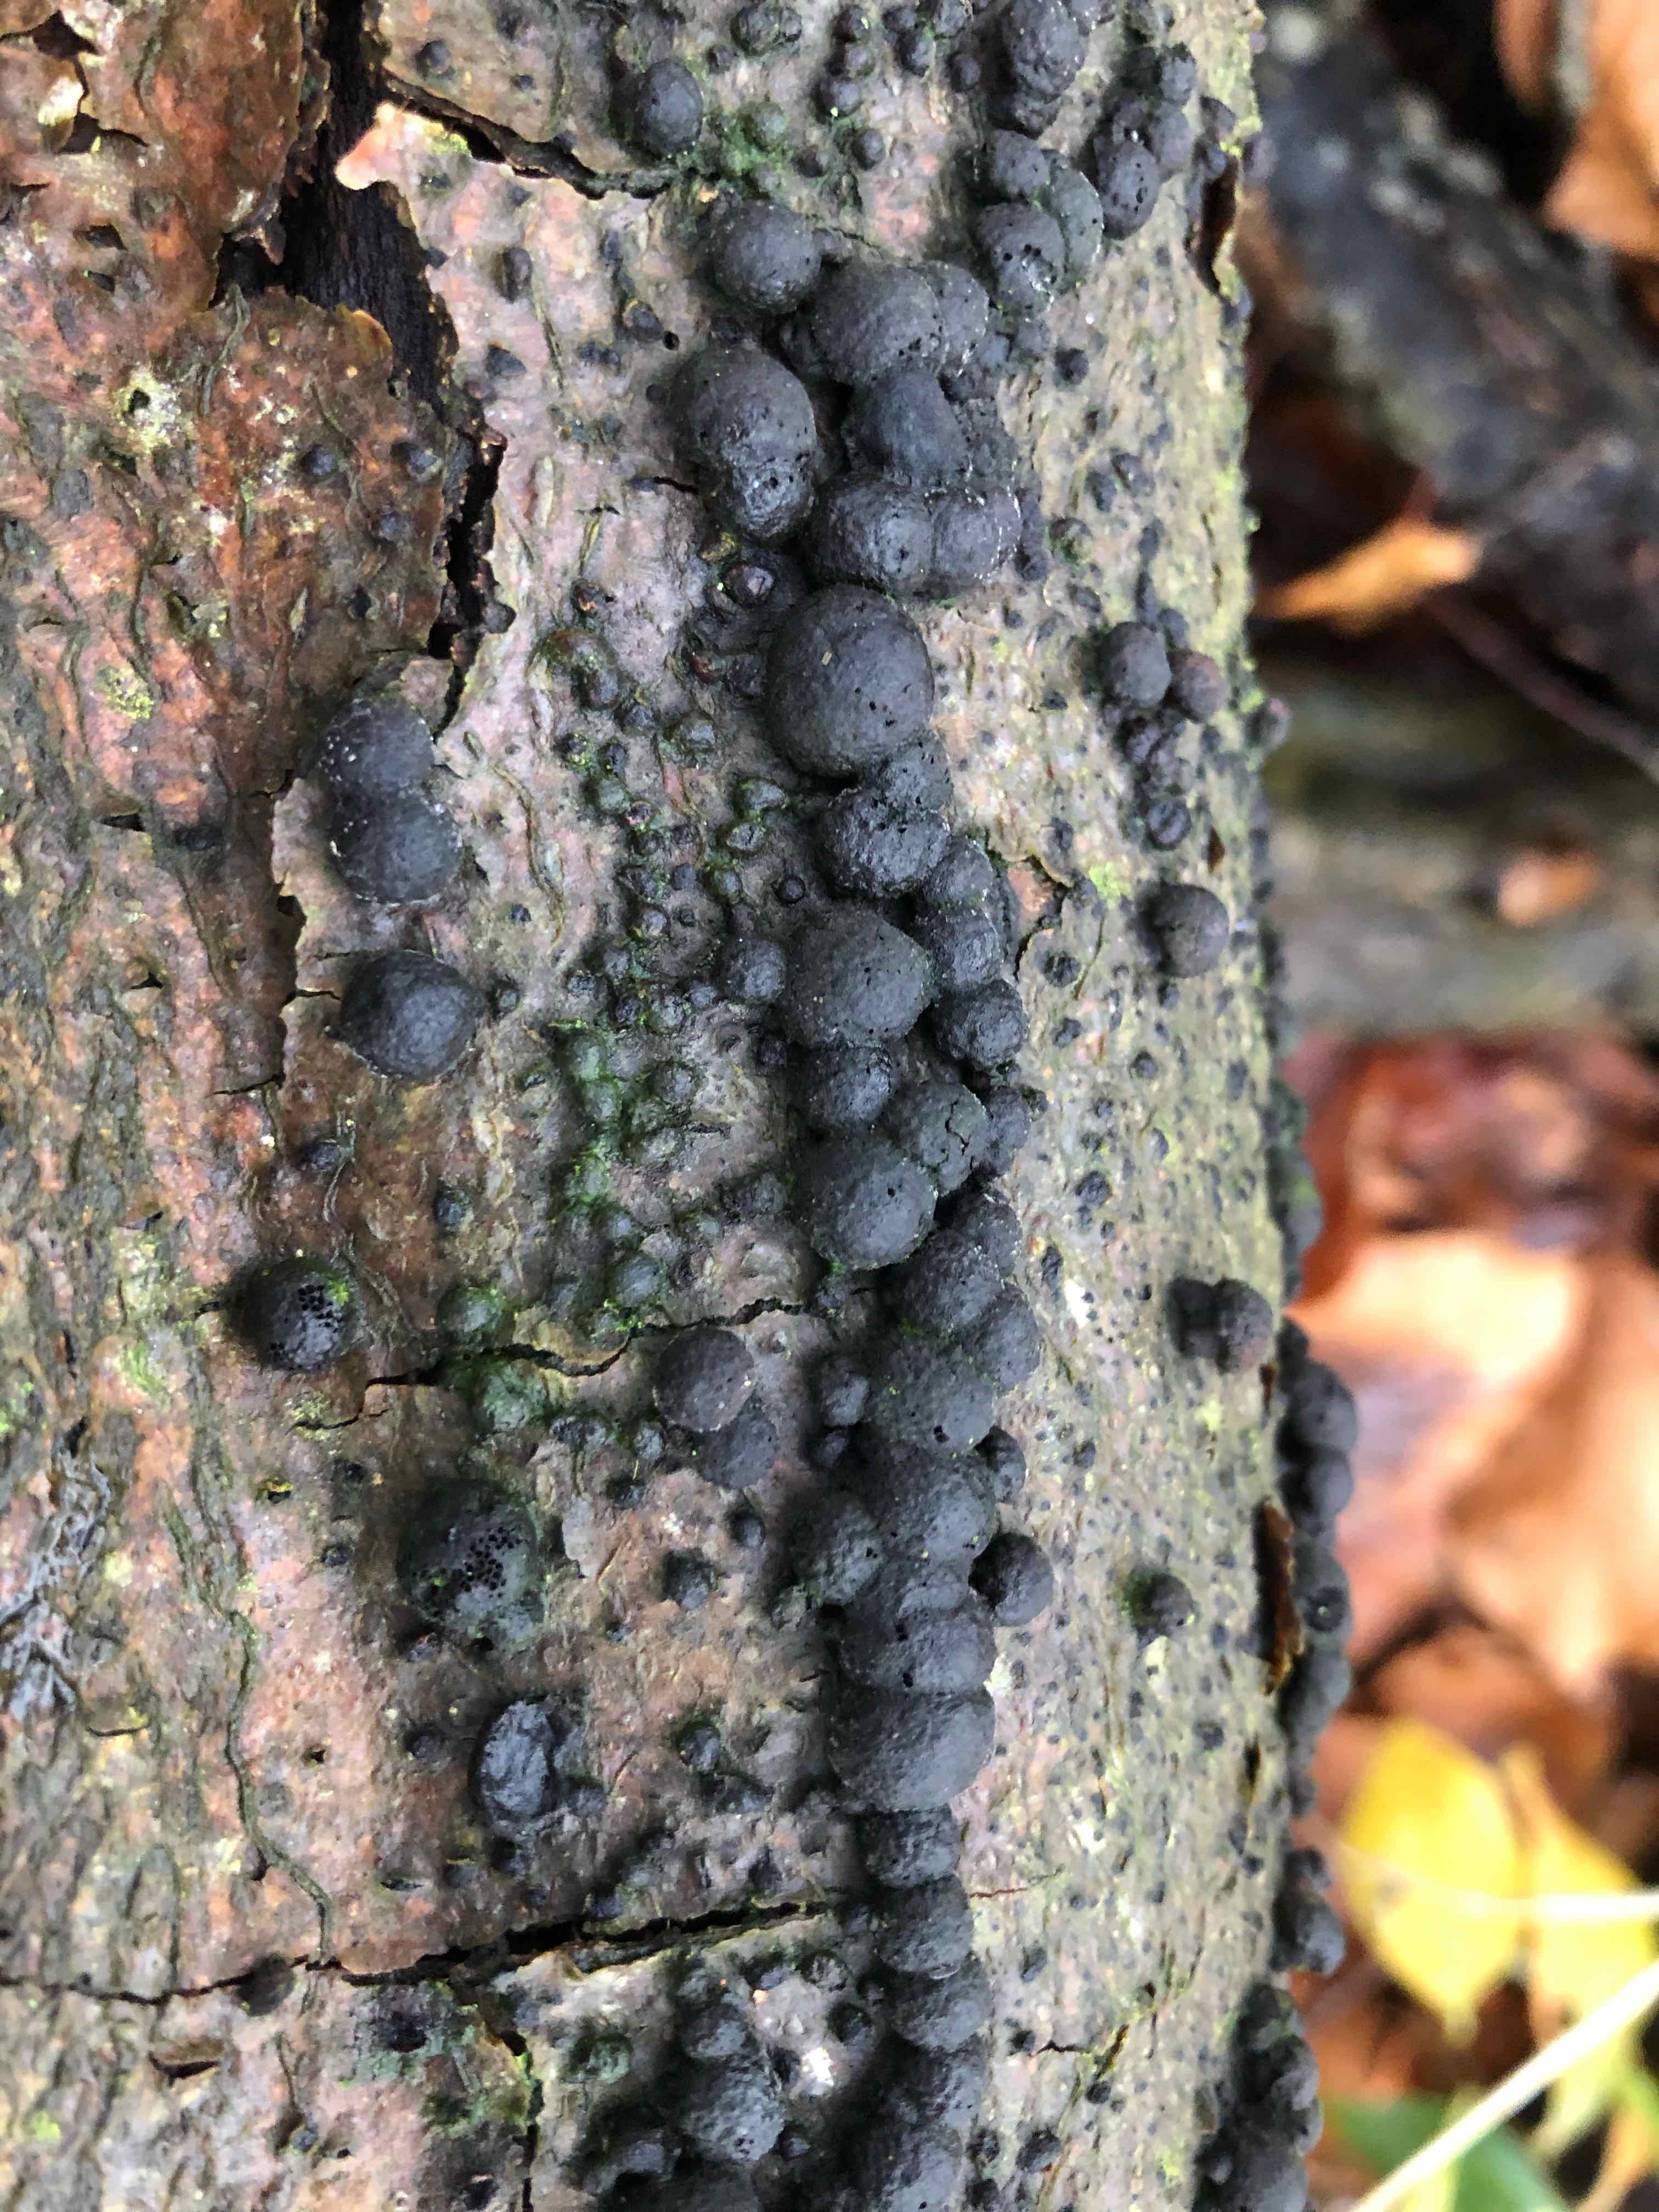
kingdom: Fungi
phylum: Ascomycota
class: Sordariomycetes
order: Xylariales
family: Hypoxylaceae
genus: Hypoxylon
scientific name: Hypoxylon fragiforme
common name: kuljordbær
